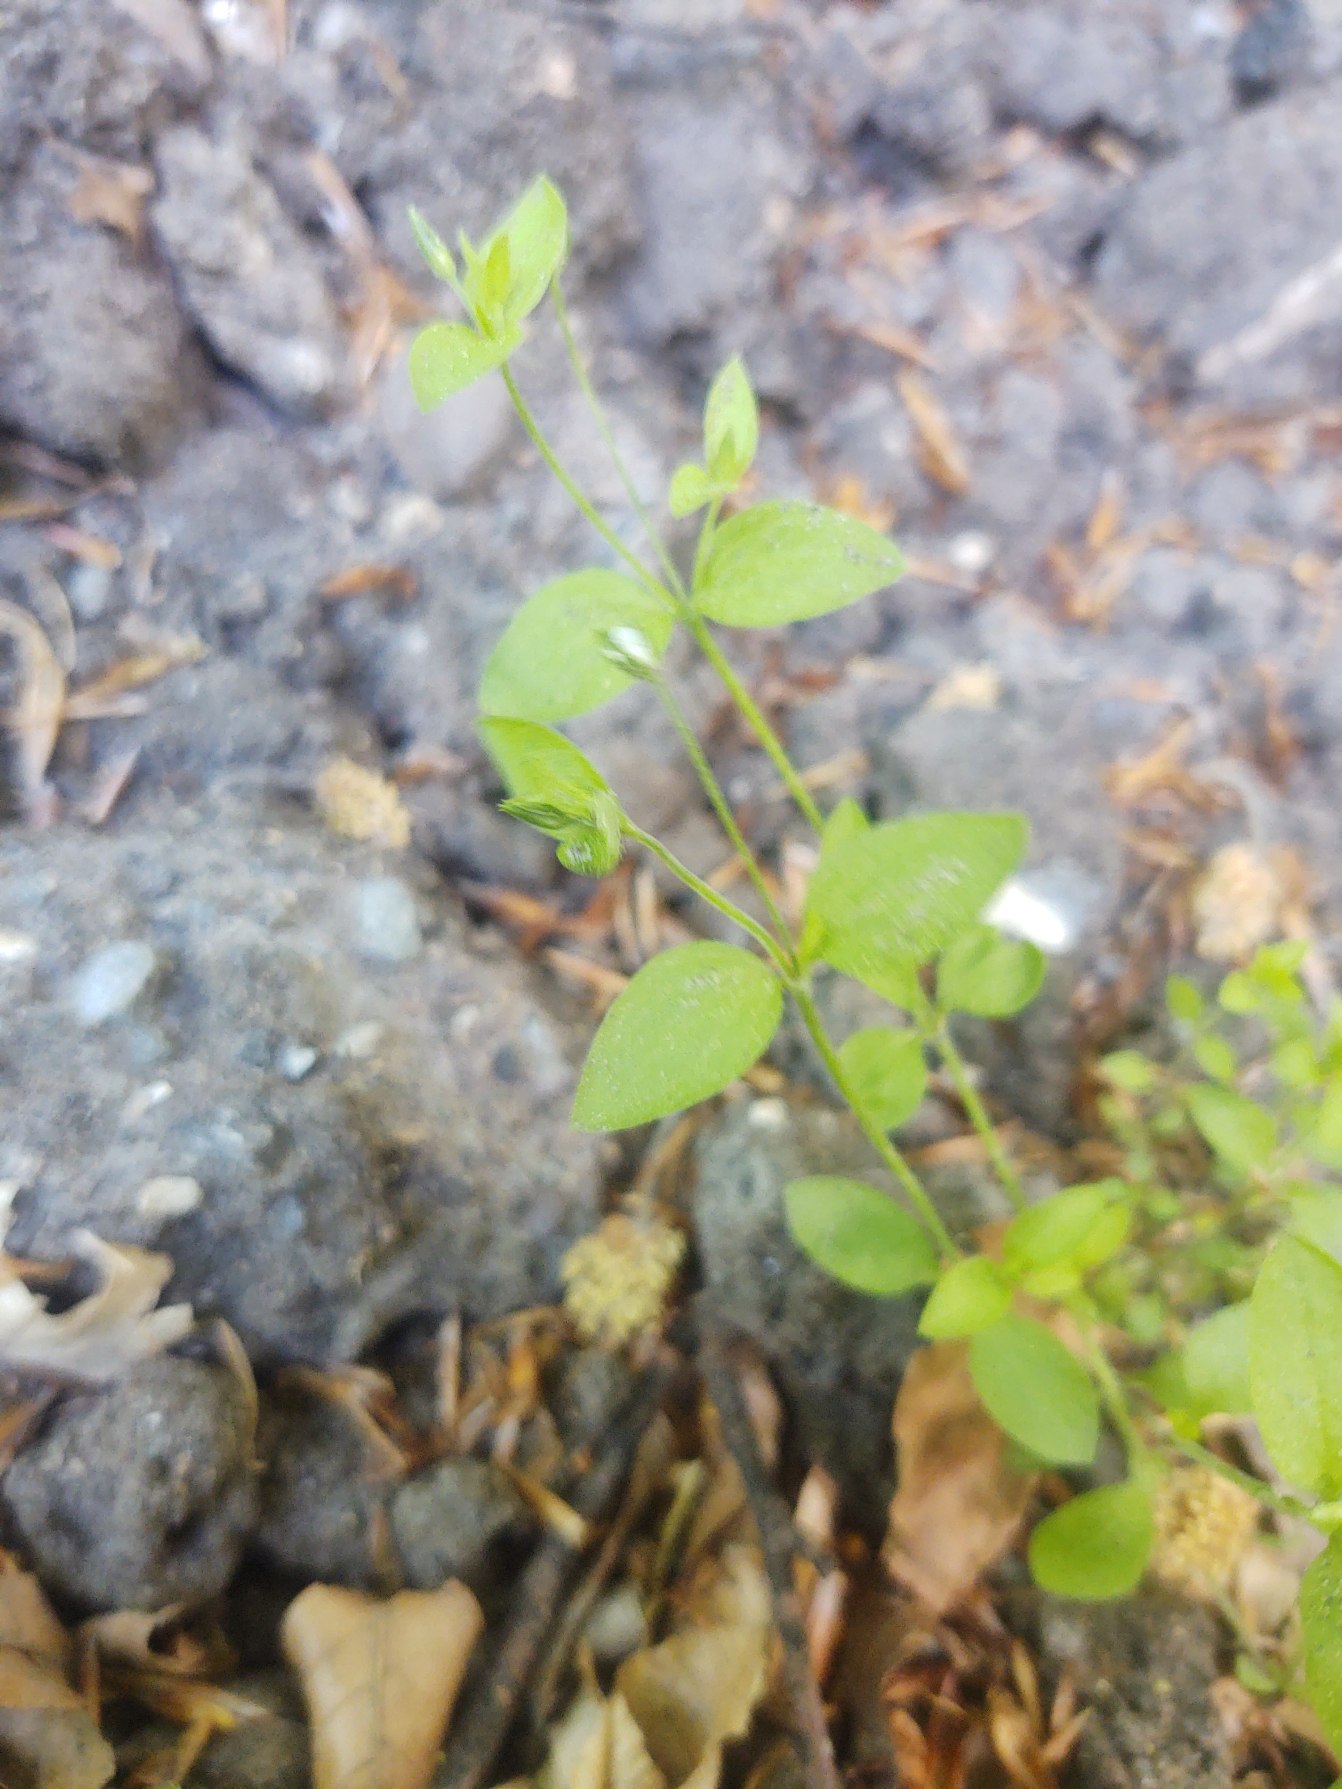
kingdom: Plantae
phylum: Tracheophyta
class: Magnoliopsida
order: Caryophyllales
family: Caryophyllaceae
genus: Moehringia
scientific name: Moehringia trinervia
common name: Skovarve
